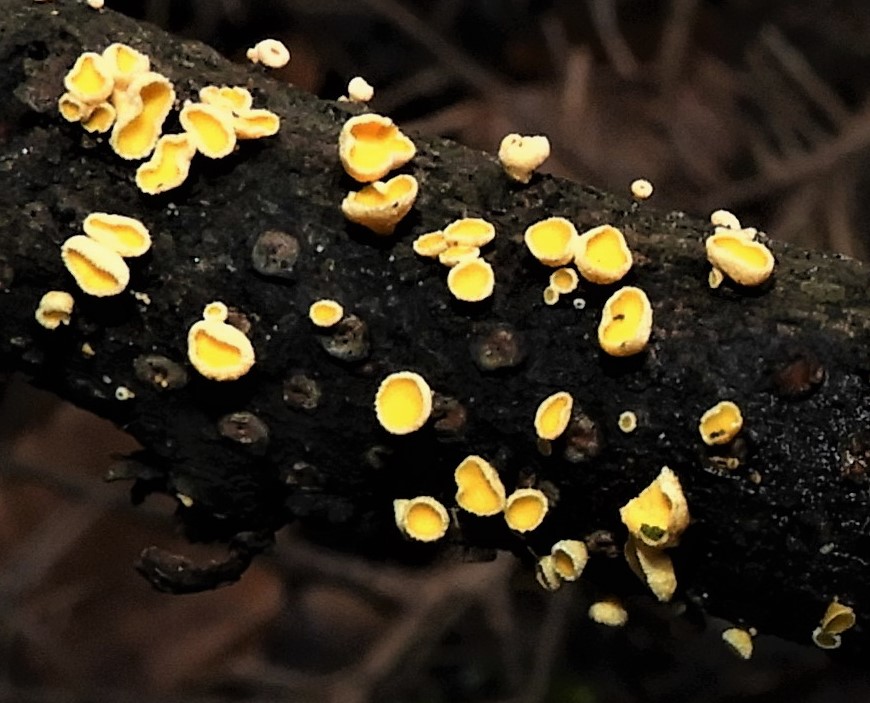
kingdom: Fungi
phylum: Ascomycota
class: Leotiomycetes
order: Helotiales
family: Lachnaceae
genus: Lachnellula
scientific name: Lachnellula
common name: frynseskive
